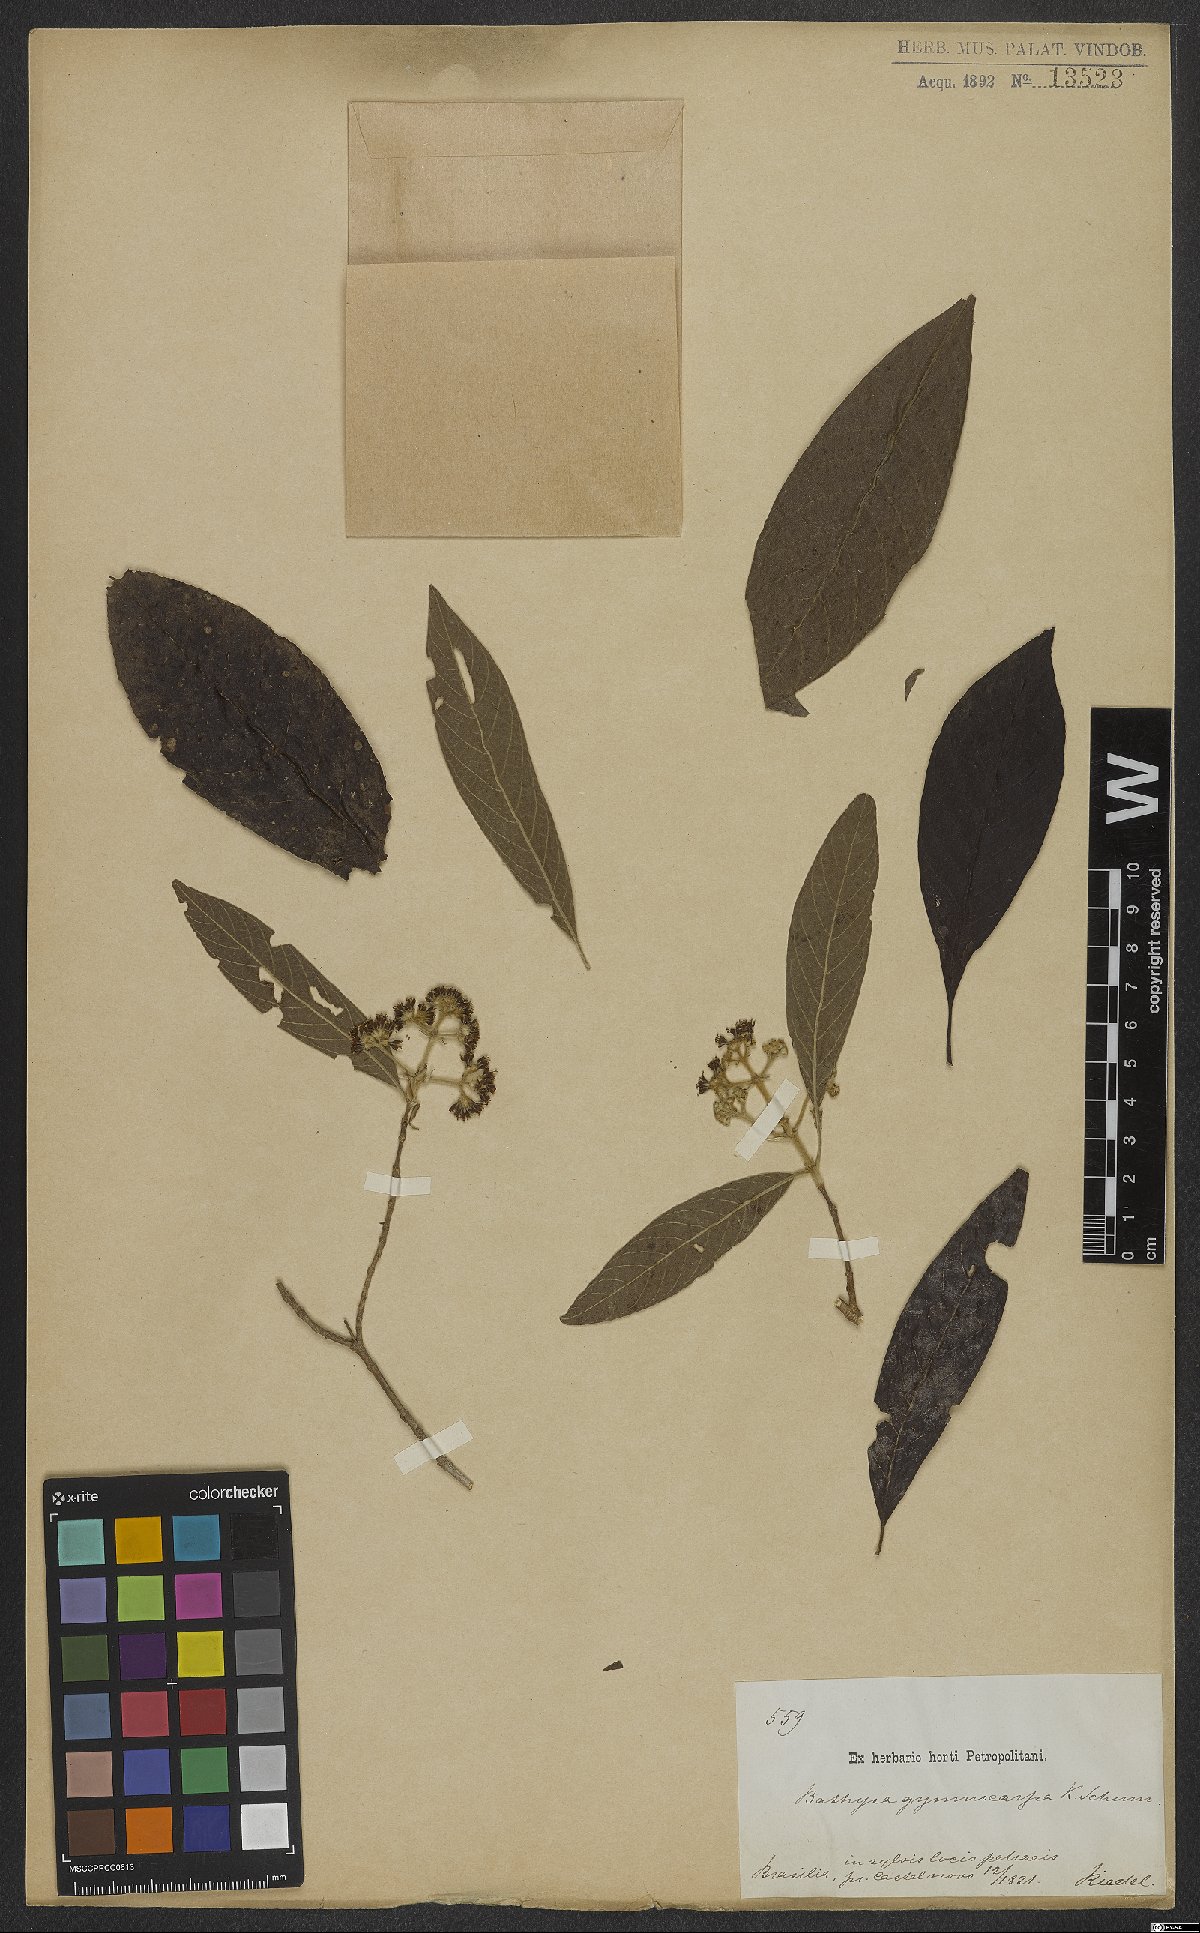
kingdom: Plantae
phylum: Tracheophyta
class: Magnoliopsida
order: Gentianales
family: Rubiaceae
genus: Bathysa
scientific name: Bathysa gymnocarpa
